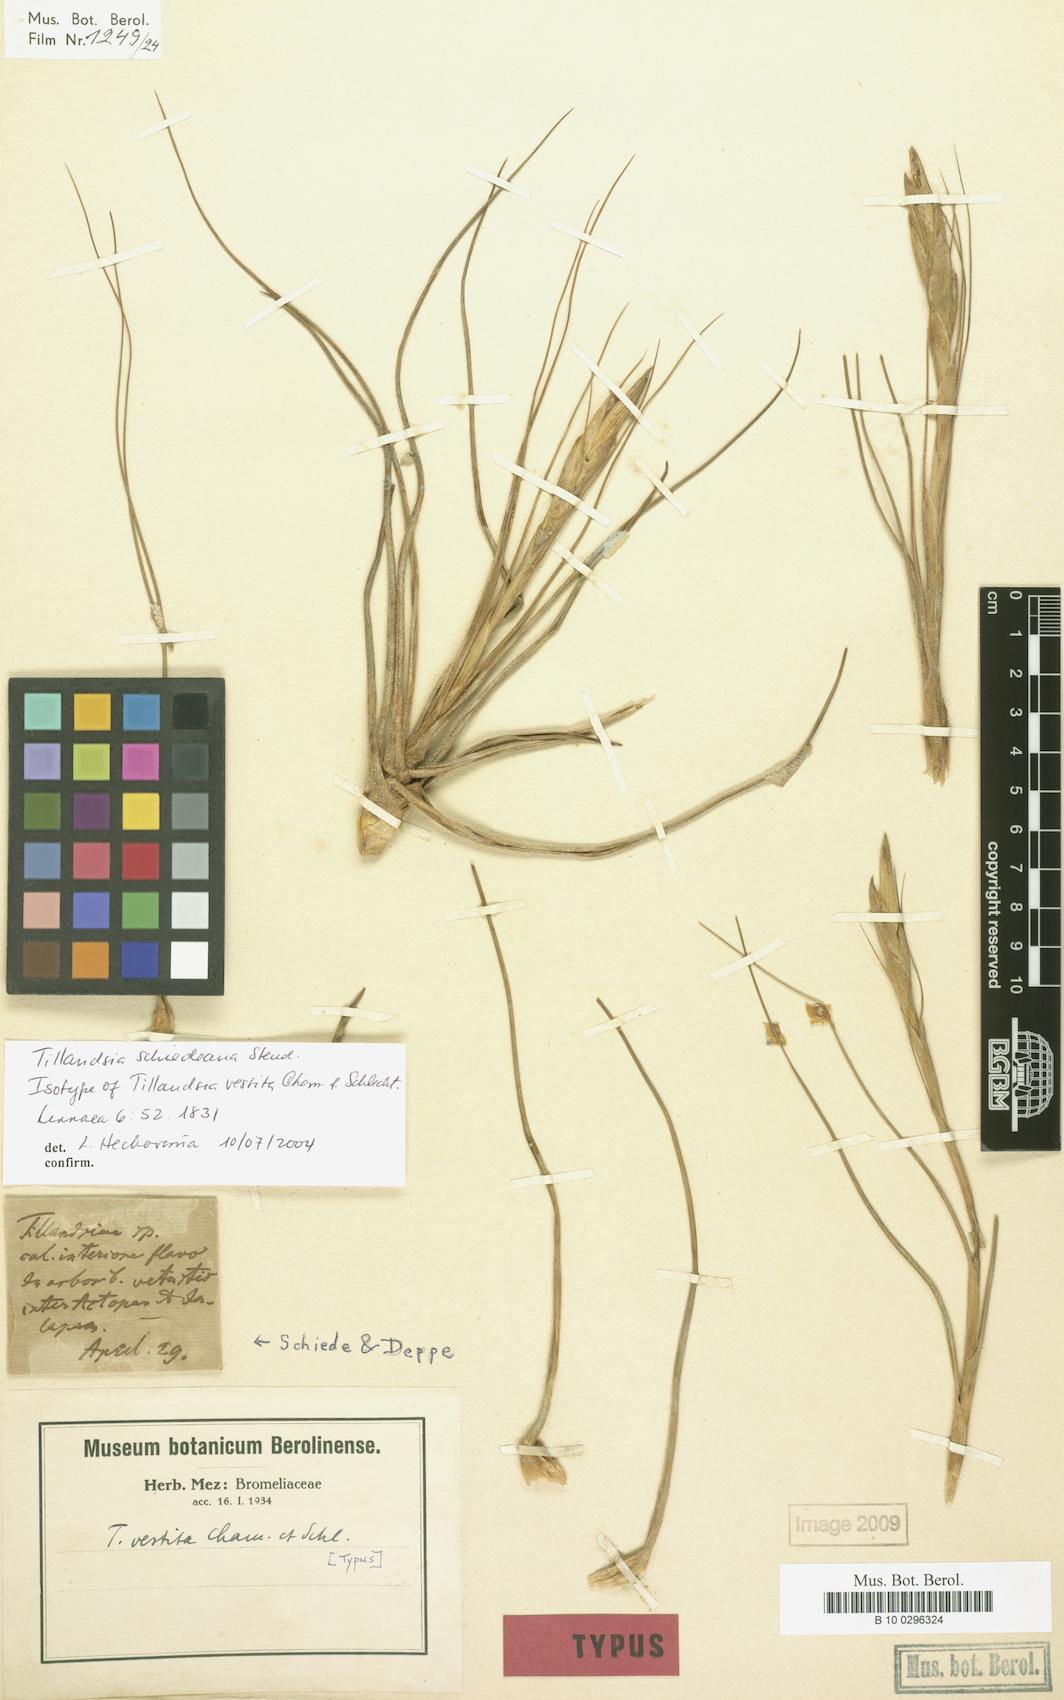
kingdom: Plantae
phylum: Tracheophyta
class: Liliopsida
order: Poales
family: Bromeliaceae
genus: Tillandsia
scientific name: Tillandsia schiedeana
